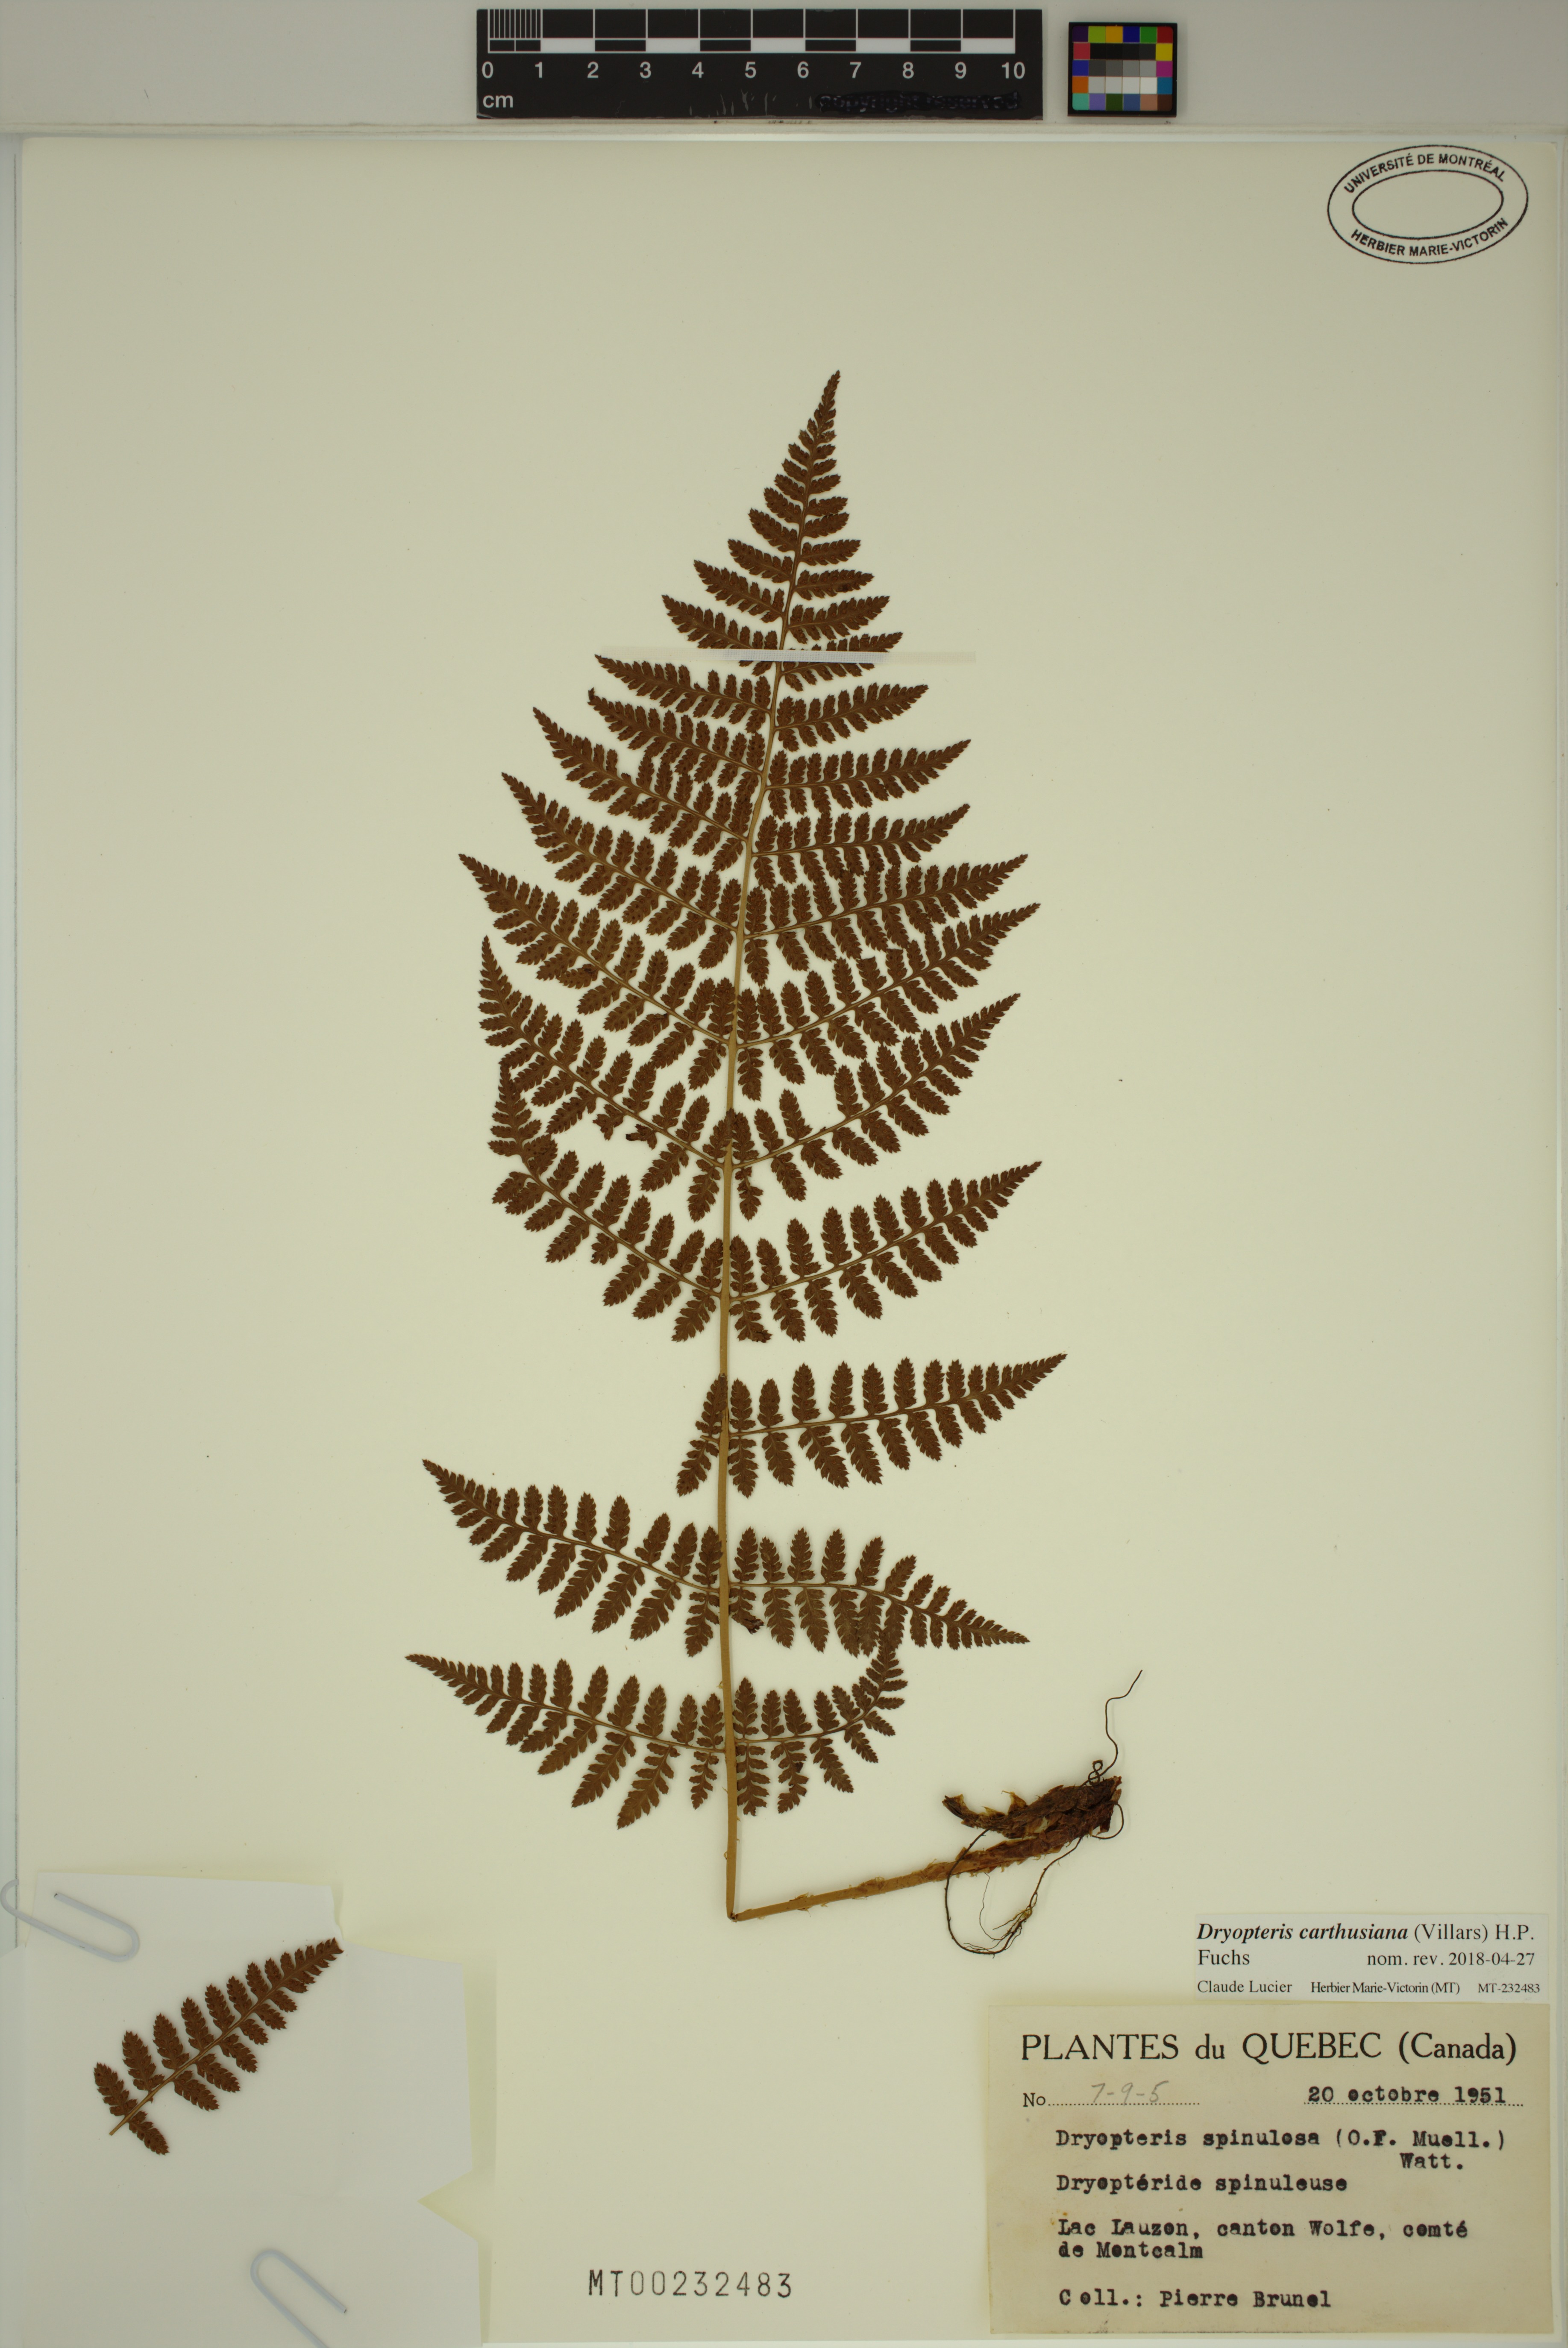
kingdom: Plantae
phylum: Tracheophyta
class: Polypodiopsida
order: Polypodiales
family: Dryopteridaceae
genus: Dryopteris
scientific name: Dryopteris carthusiana
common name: Narrow buckler-fern
